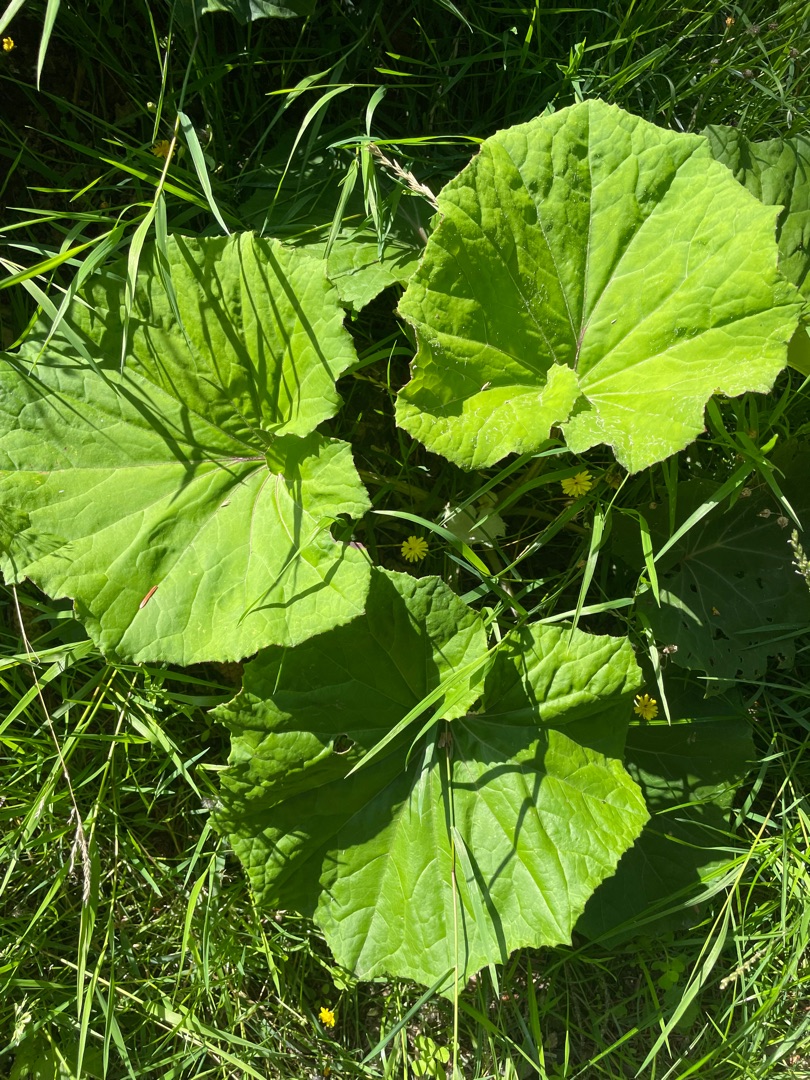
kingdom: Plantae
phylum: Tracheophyta
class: Magnoliopsida
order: Asterales
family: Asteraceae
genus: Tussilago
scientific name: Tussilago farfara
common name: Følfod
